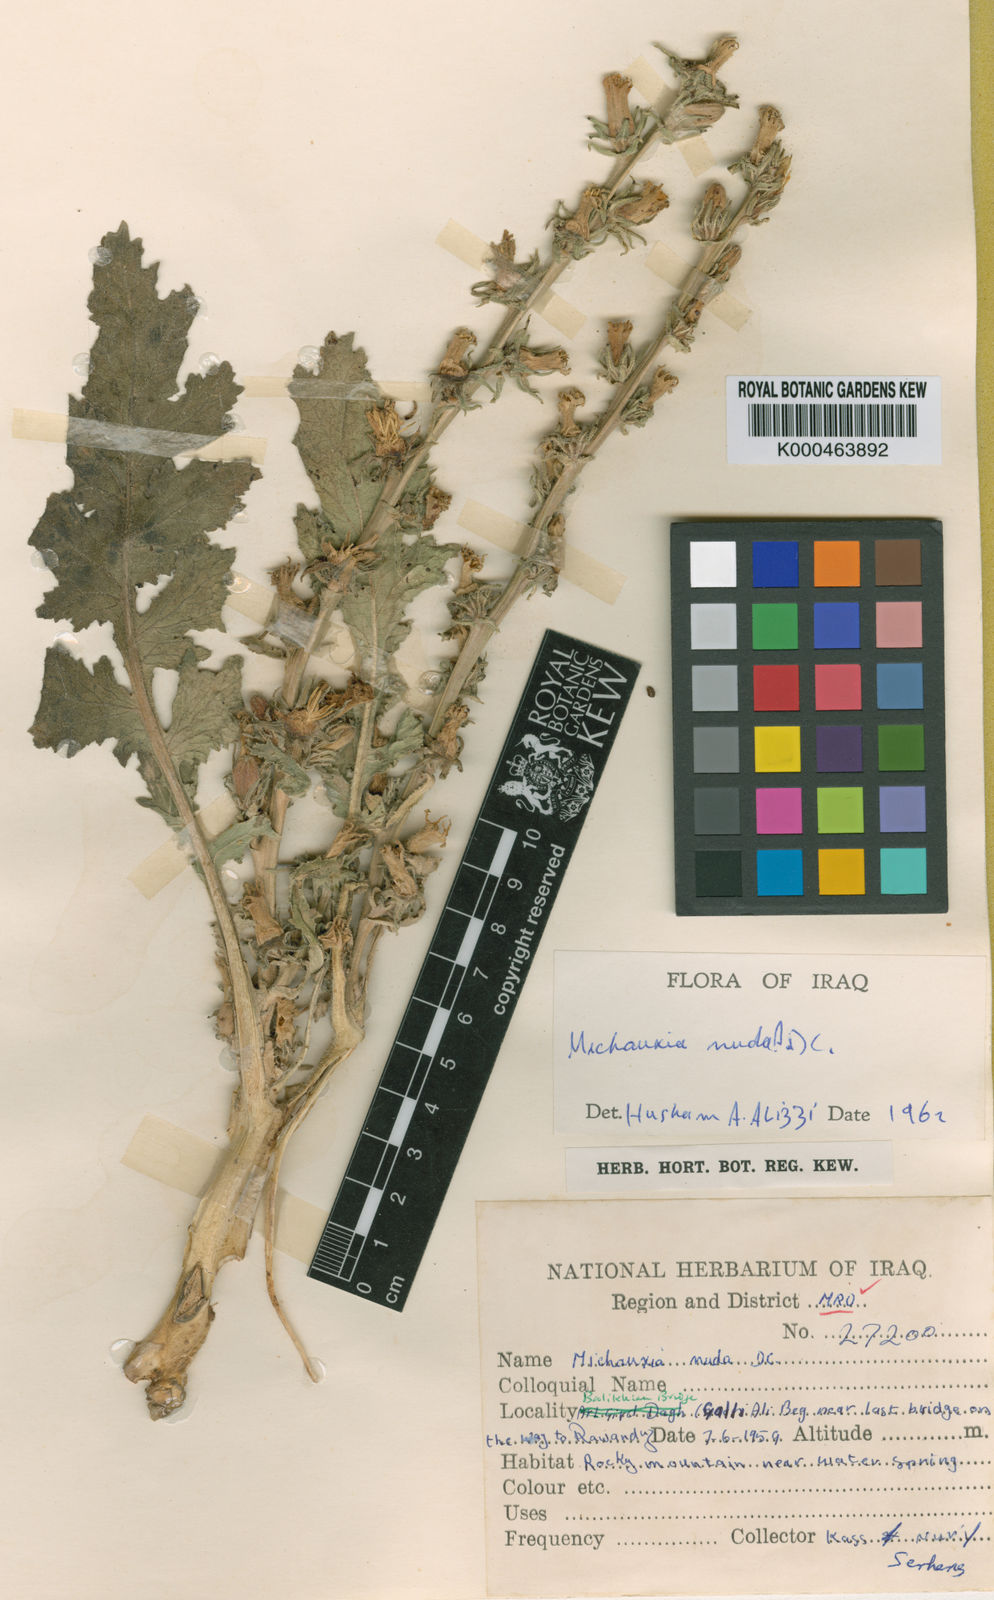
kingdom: Plantae
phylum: Tracheophyta
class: Magnoliopsida
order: Asterales
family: Campanulaceae
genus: Michauxia
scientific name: Michauxia nuda
